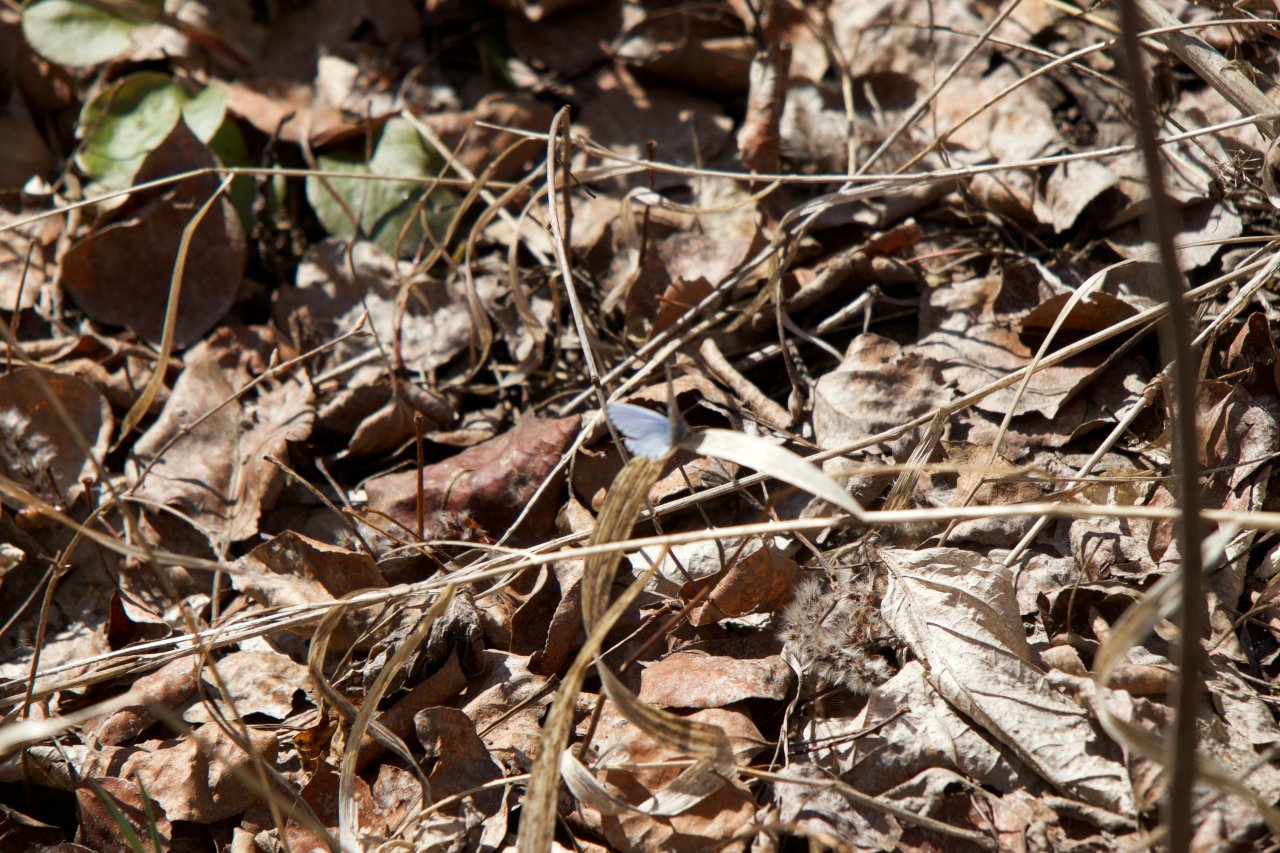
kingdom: Animalia
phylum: Arthropoda
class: Insecta
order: Lepidoptera
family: Lycaenidae
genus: Celastrina
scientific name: Celastrina lucia
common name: Northern Spring Azure
